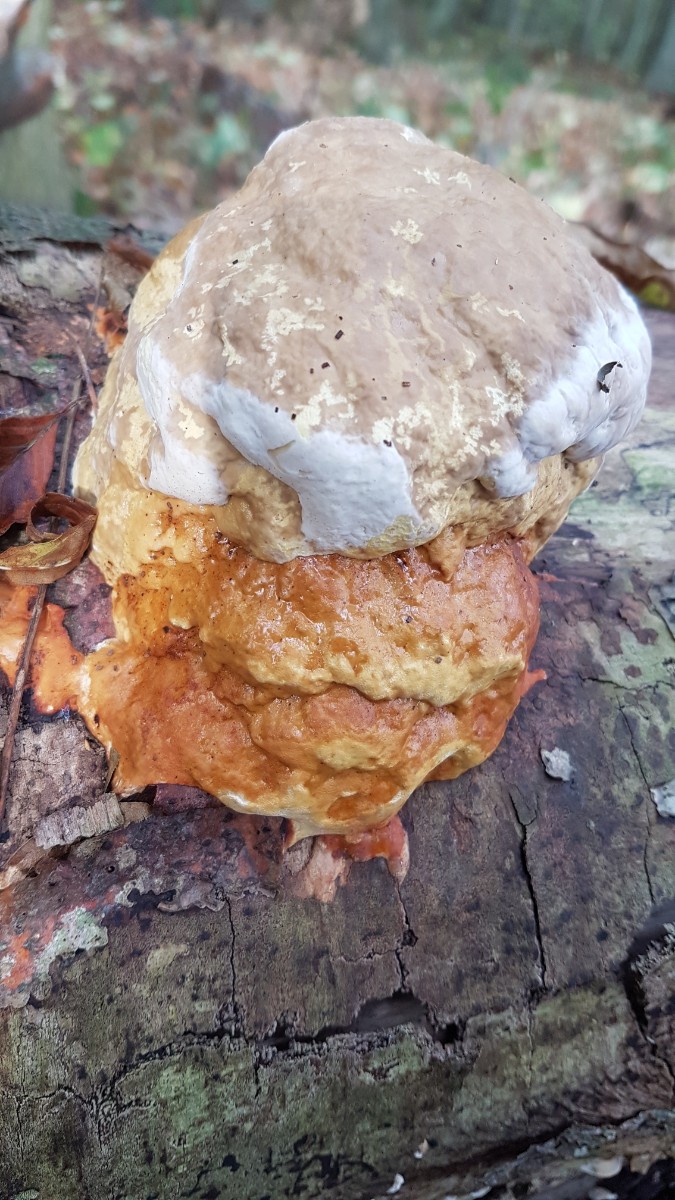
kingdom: Fungi
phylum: Basidiomycota
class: Agaricomycetes
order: Polyporales
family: Fomitopsidaceae
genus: Fomitopsis
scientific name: Fomitopsis pinicola
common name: randbæltet hovporesvamp
